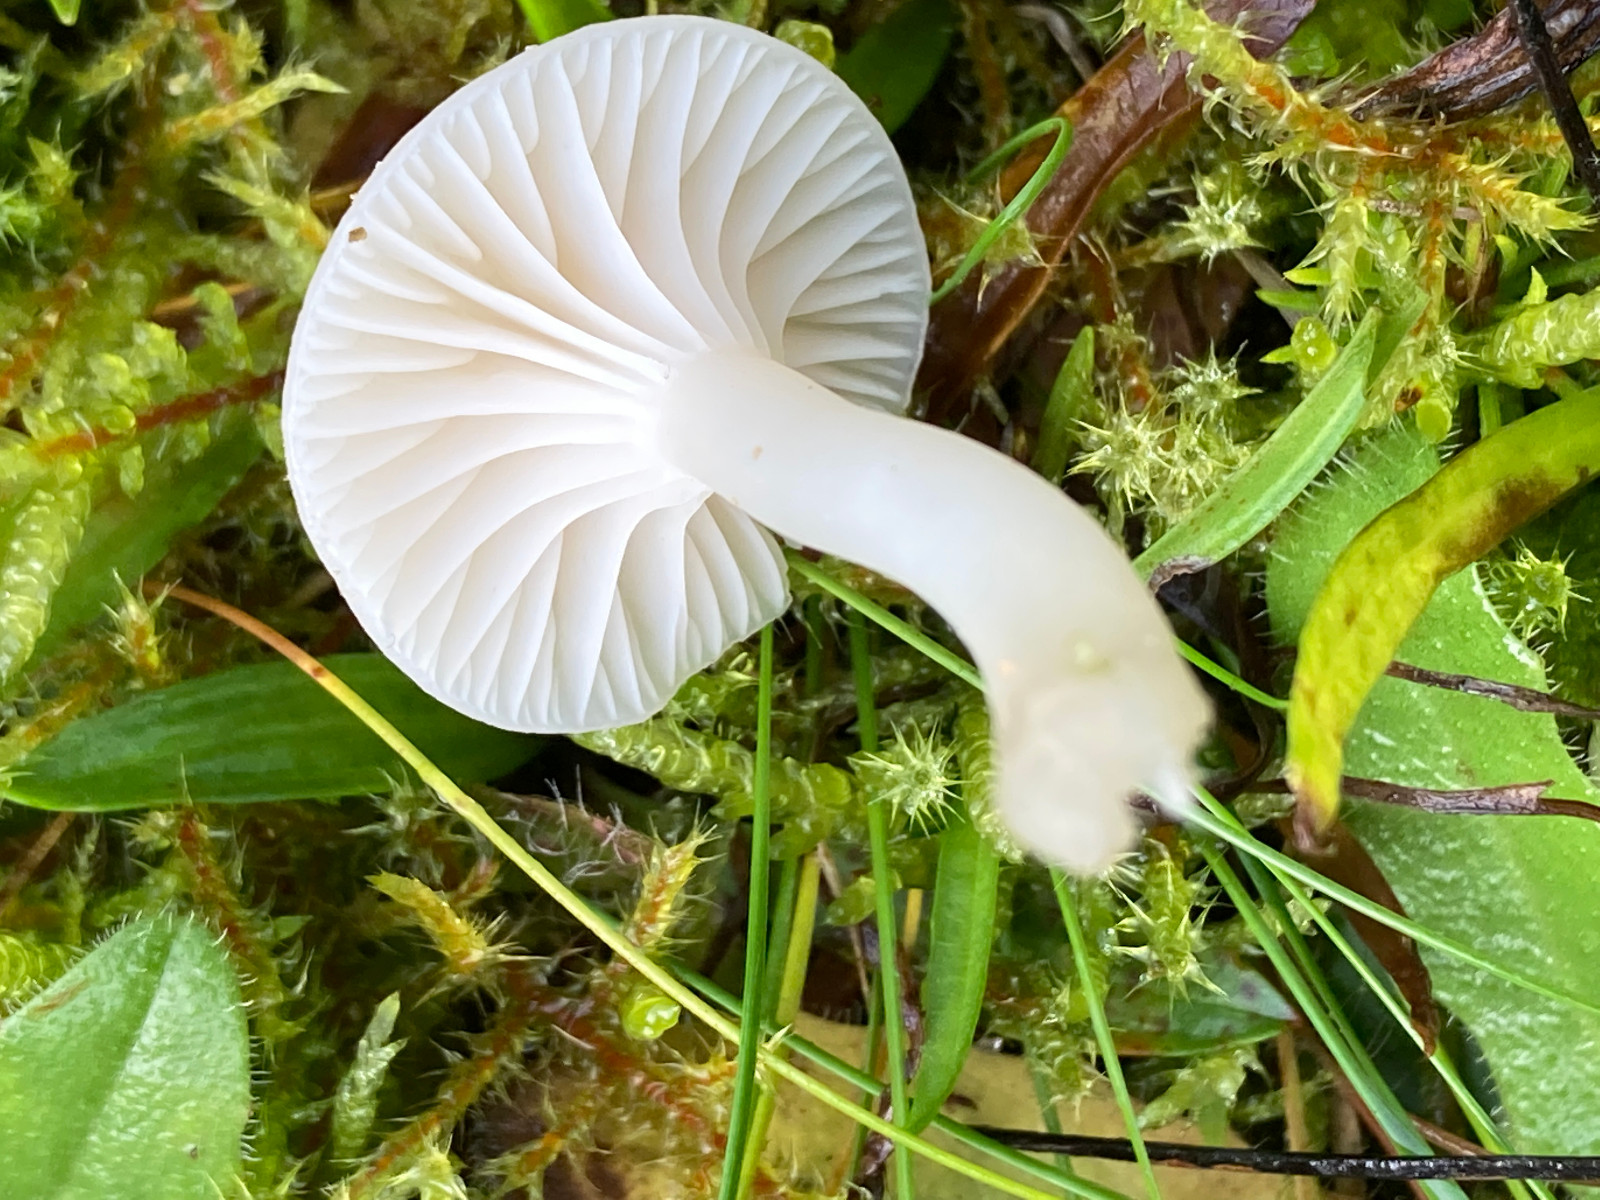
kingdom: Fungi
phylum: Basidiomycota
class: Agaricomycetes
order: Agaricales
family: Hygrophoraceae
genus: Cuphophyllus
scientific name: Cuphophyllus virgineus
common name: snehvid vokshat
